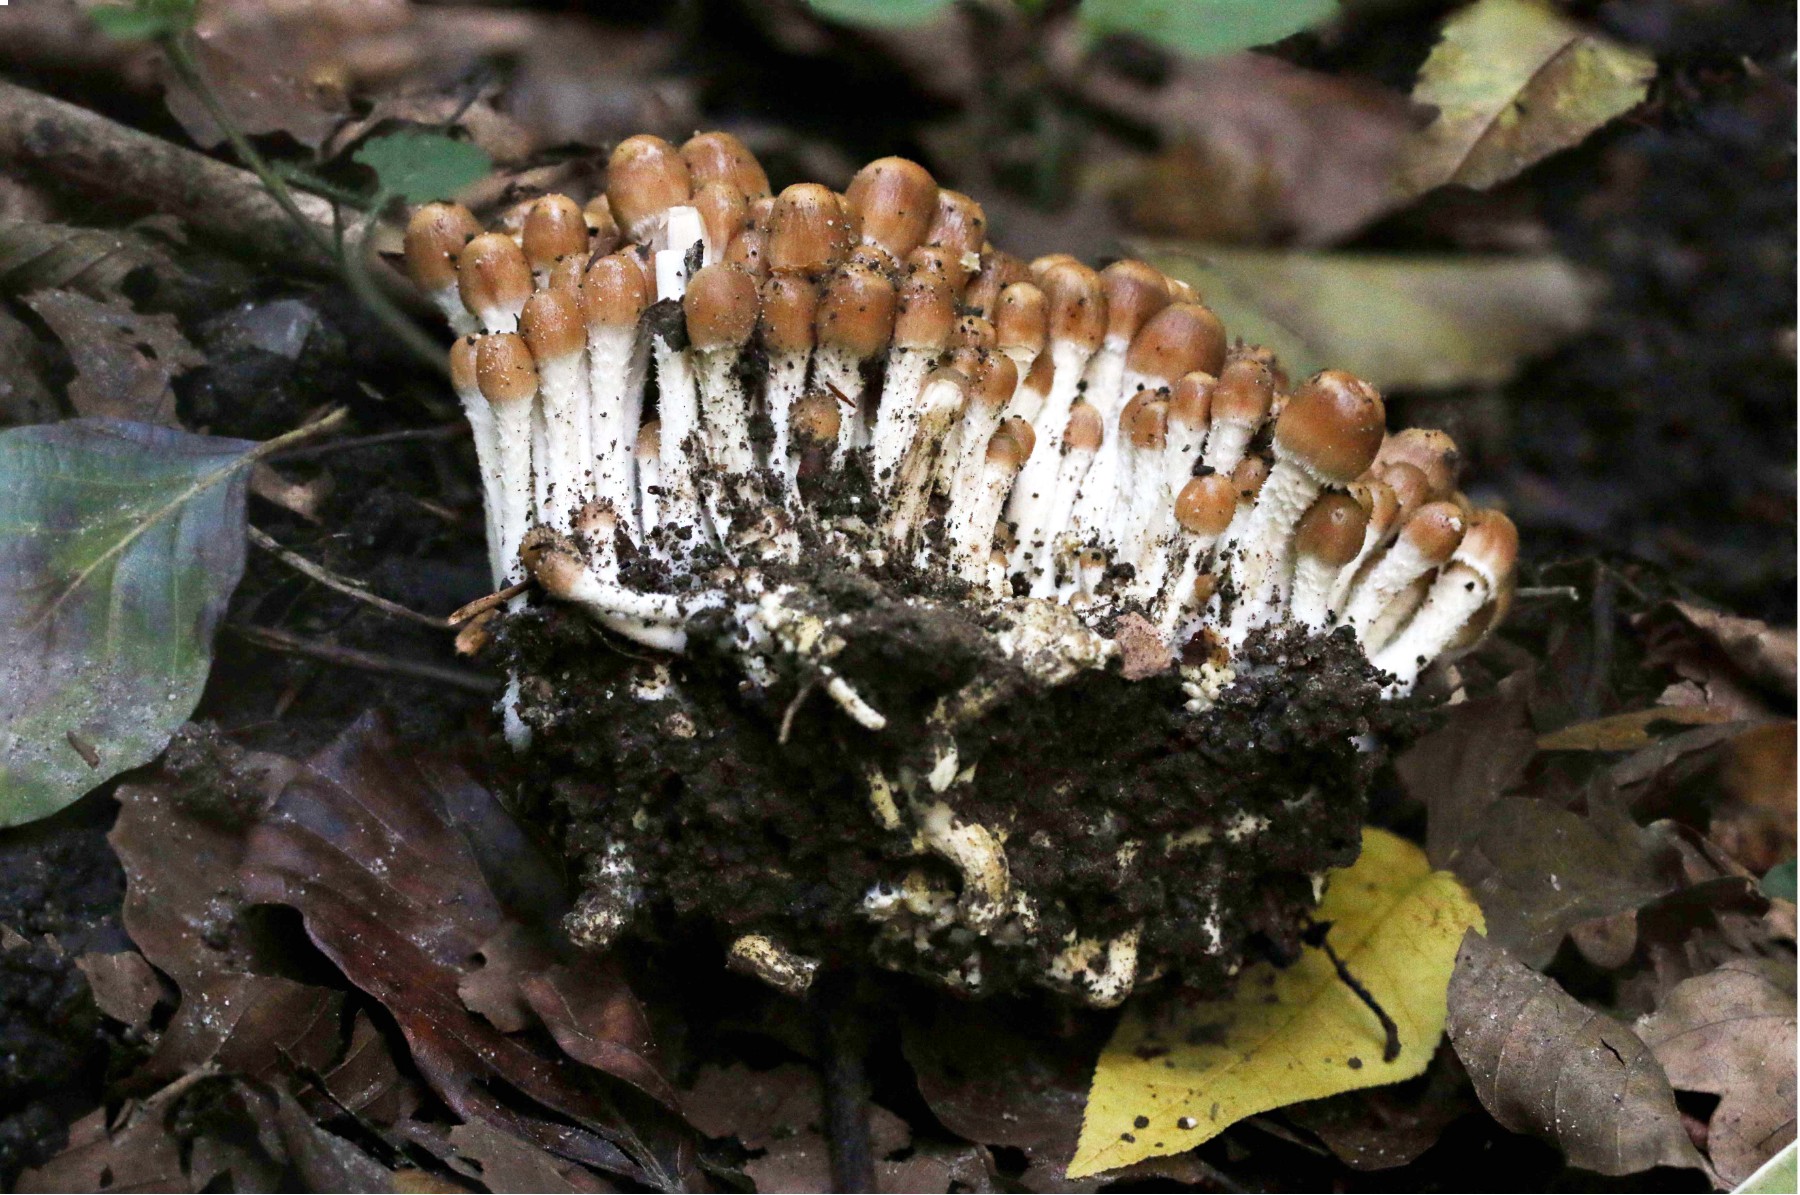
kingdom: Fungi
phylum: Basidiomycota
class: Agaricomycetes
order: Agaricales
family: Psathyrellaceae
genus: Britzelmayria
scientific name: Britzelmayria multipedata
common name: knippe-mørkhat
